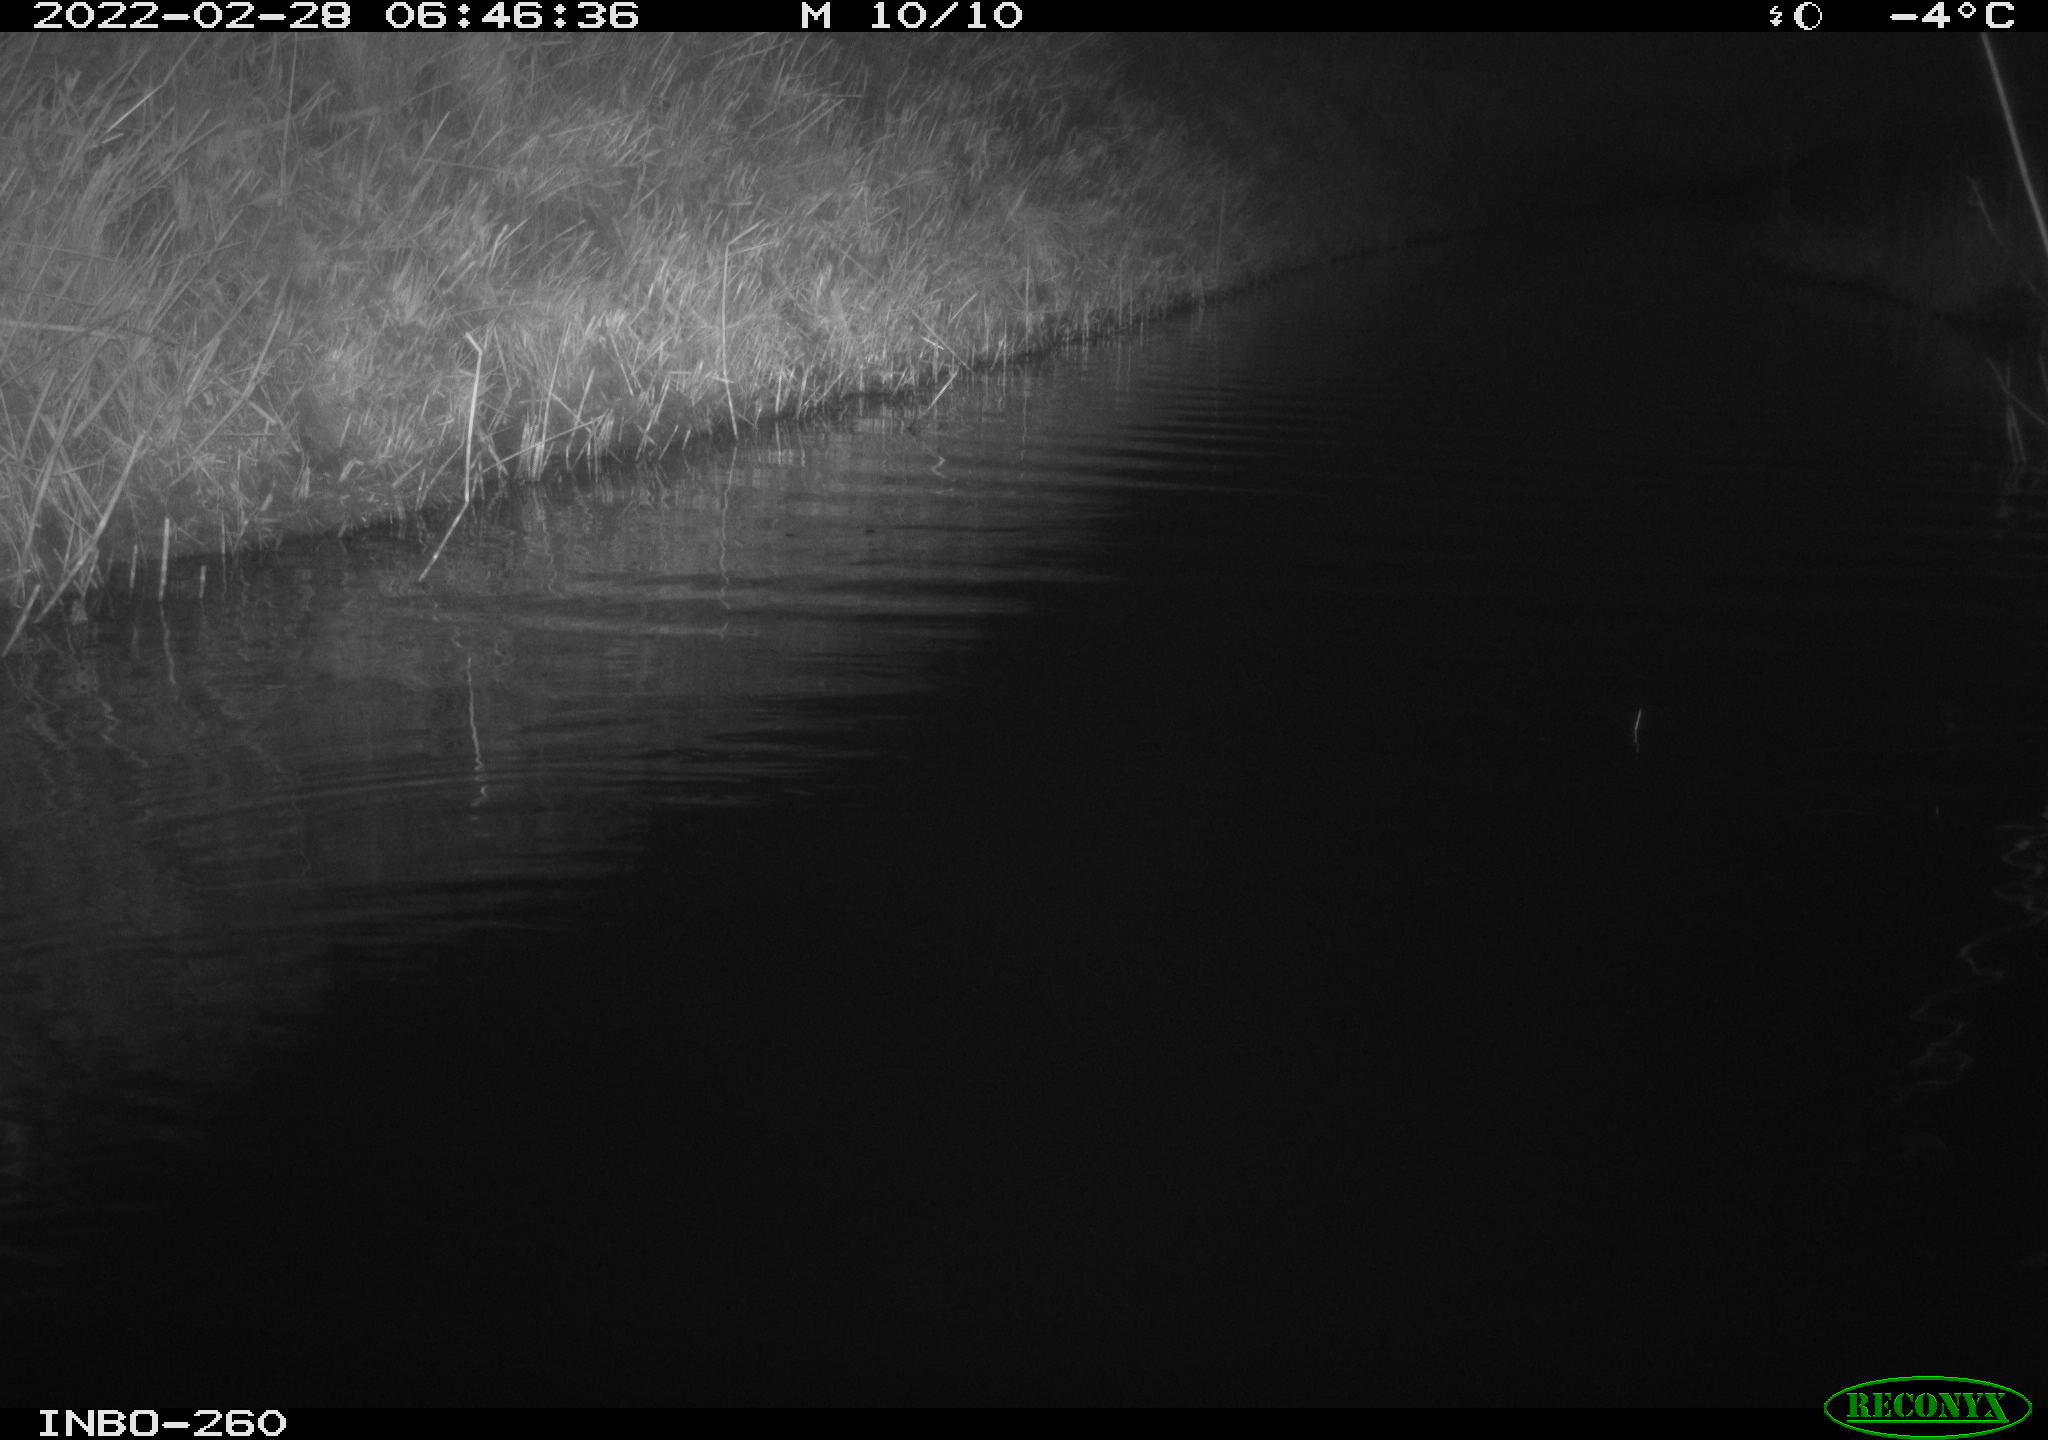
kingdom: Animalia
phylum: Chordata
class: Mammalia
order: Rodentia
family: Cricetidae
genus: Ondatra
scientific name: Ondatra zibethicus
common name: Muskrat
